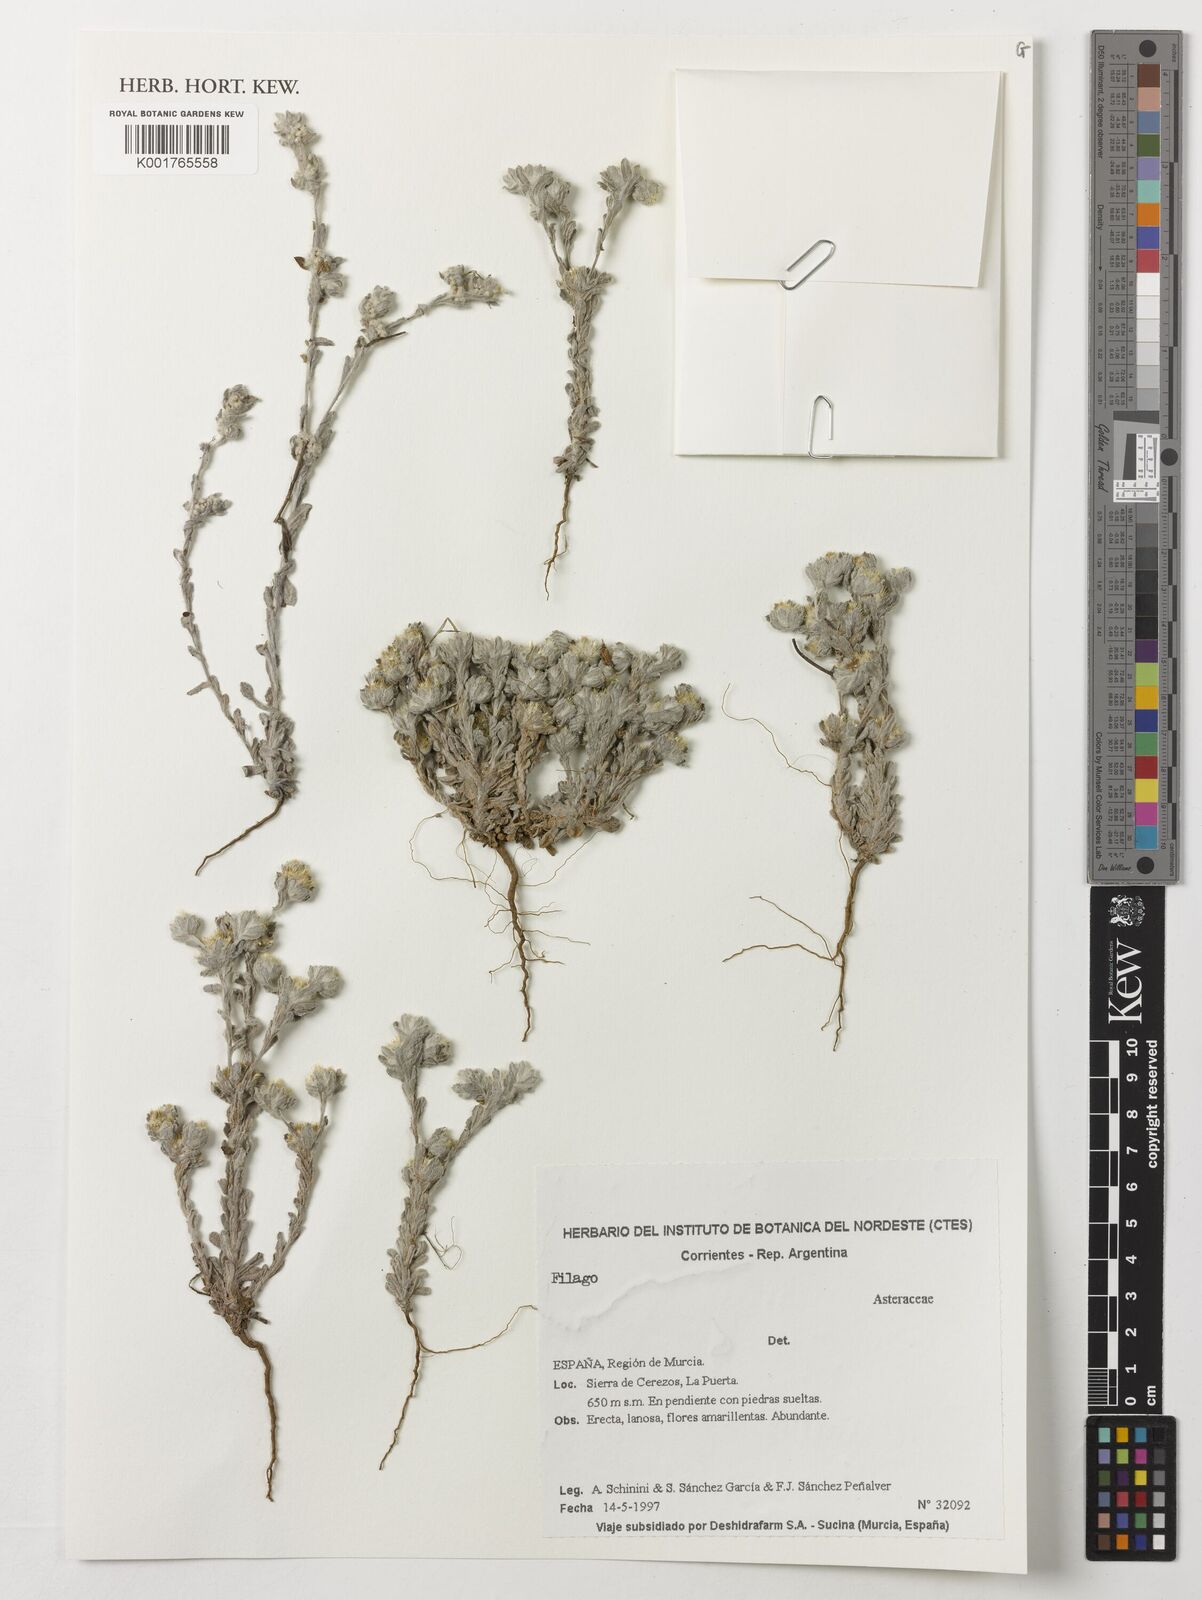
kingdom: Plantae
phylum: Tracheophyta
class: Magnoliopsida
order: Asterales
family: Asteraceae
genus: Filago
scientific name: Filago
